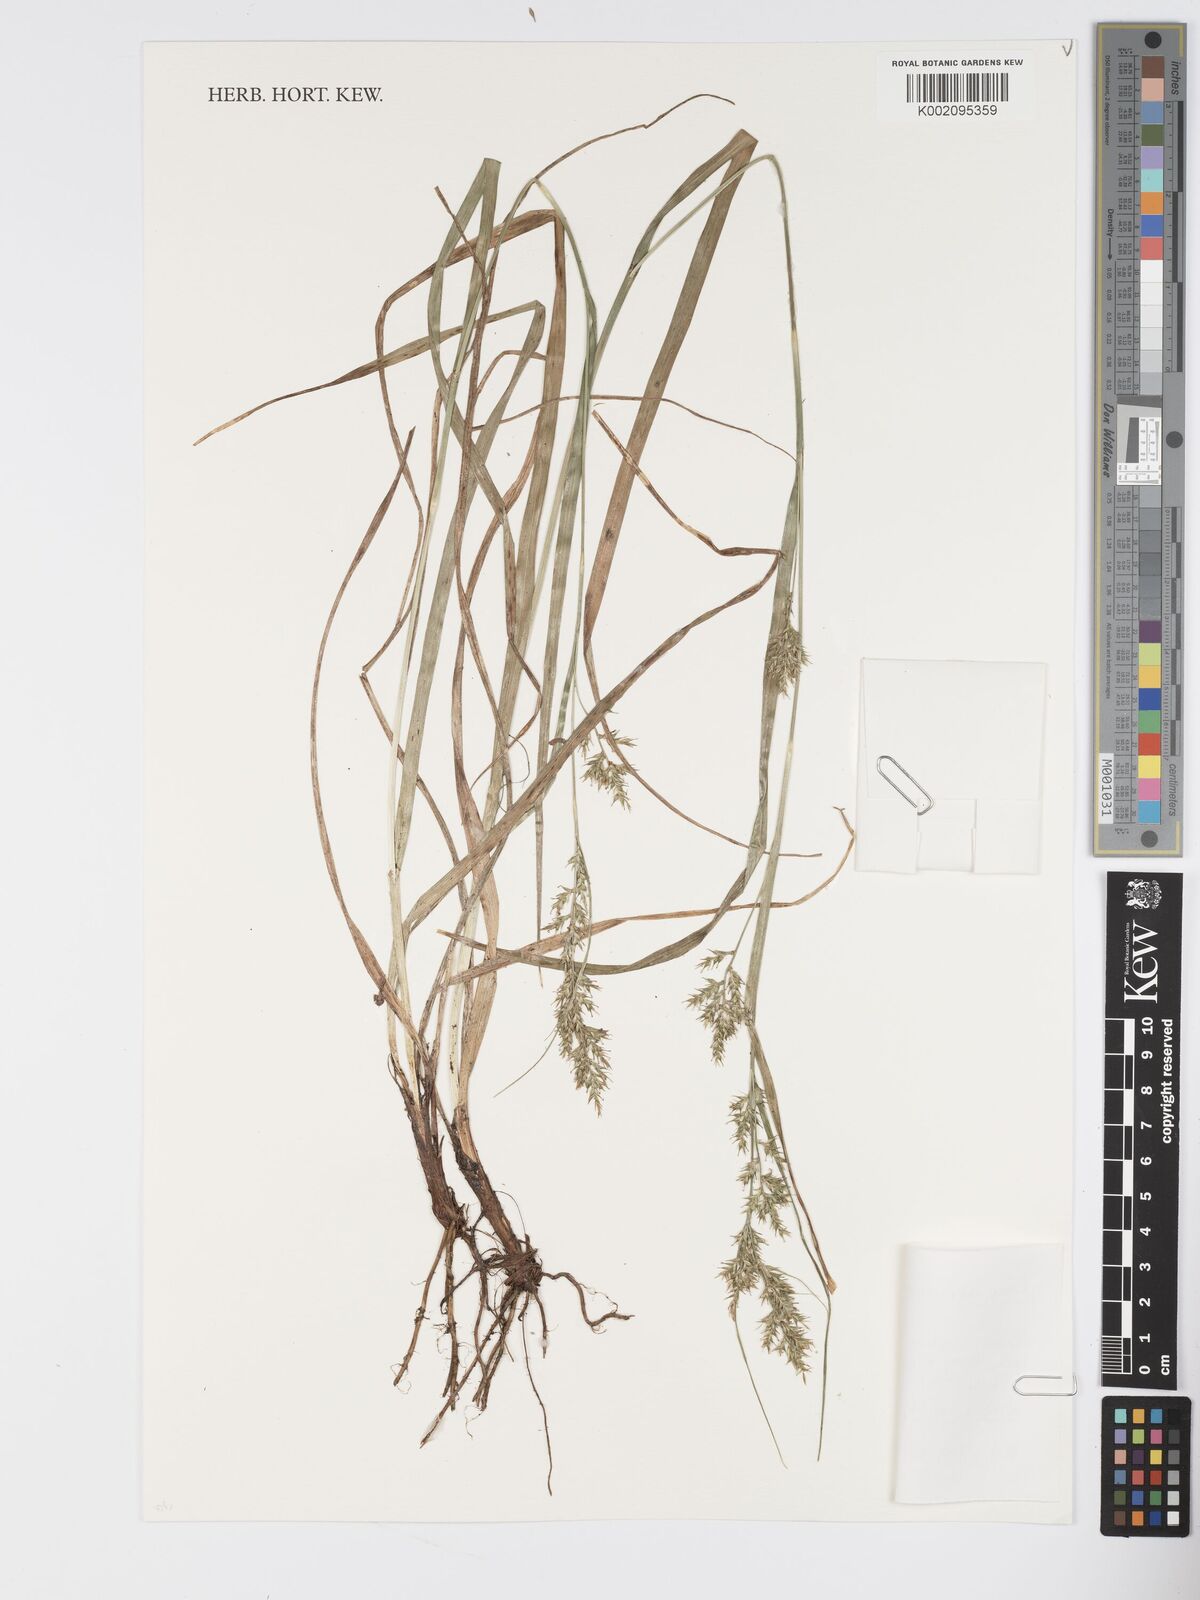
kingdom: Plantae
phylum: Tracheophyta
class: Liliopsida
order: Poales
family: Cyperaceae
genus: Carex
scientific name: Carex chlorosaccus
